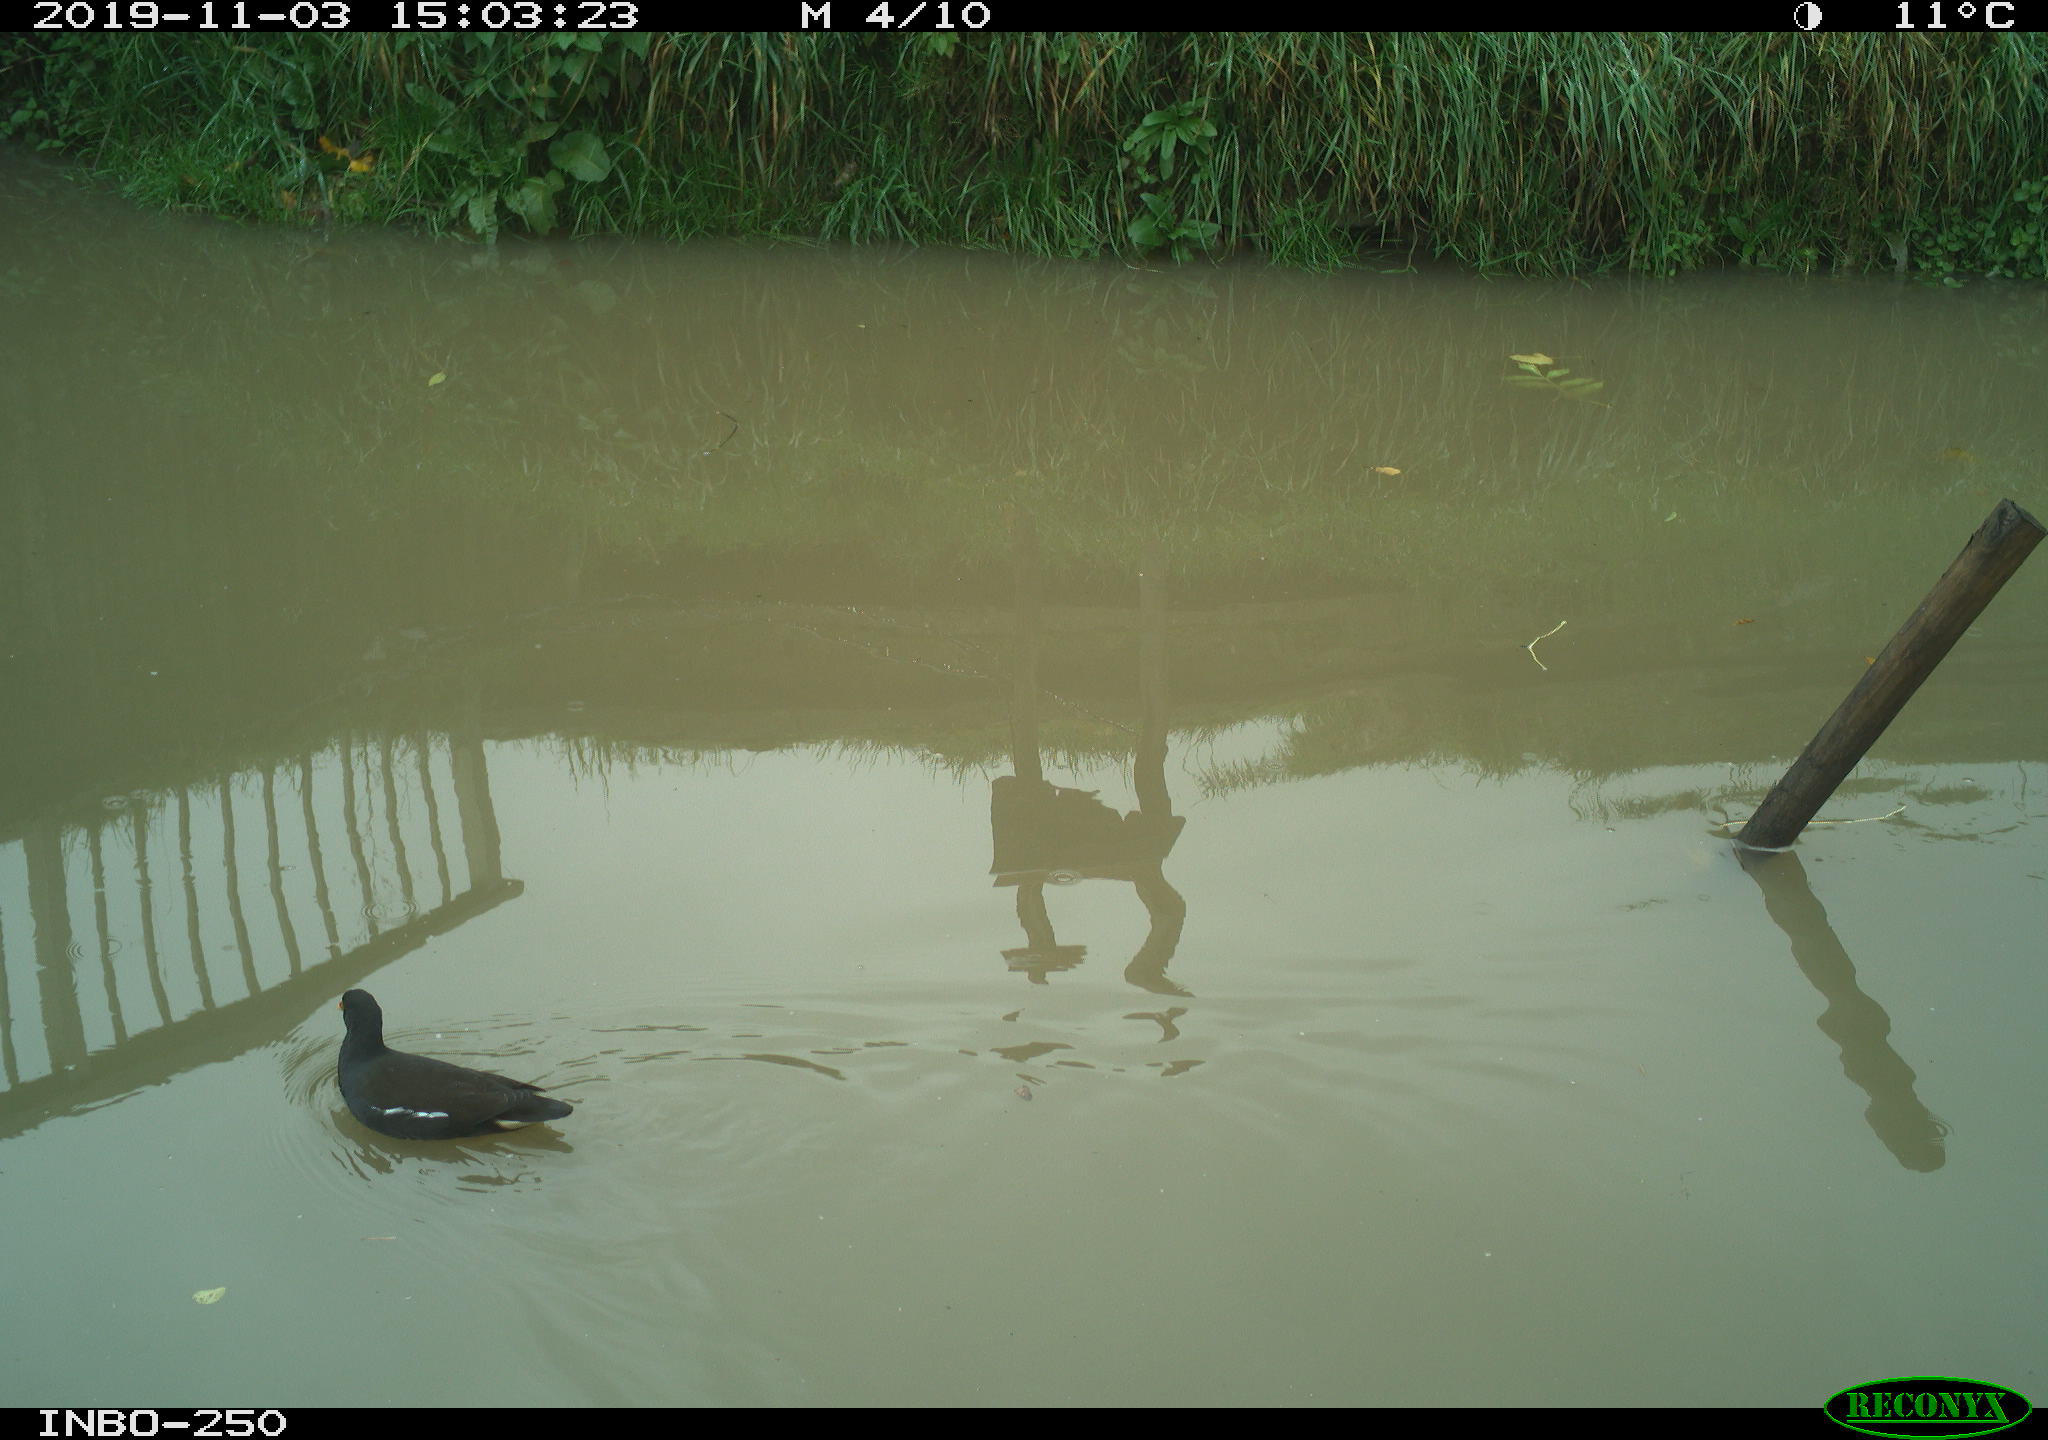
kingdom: Animalia
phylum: Chordata
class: Aves
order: Gruiformes
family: Rallidae
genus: Gallinula
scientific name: Gallinula chloropus
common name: Common moorhen
